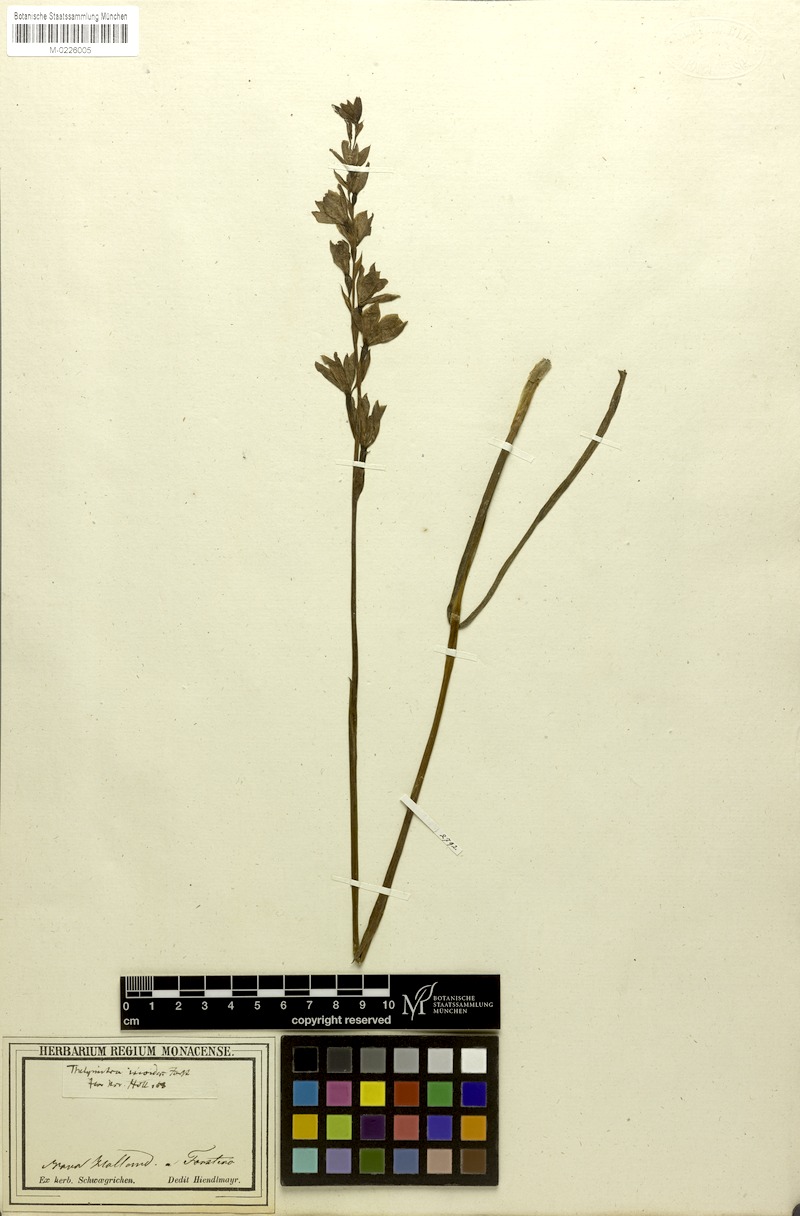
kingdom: Plantae
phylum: Tracheophyta
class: Liliopsida
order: Asparagales
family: Orchidaceae
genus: Thelymitra
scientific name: Thelymitra ixioides
